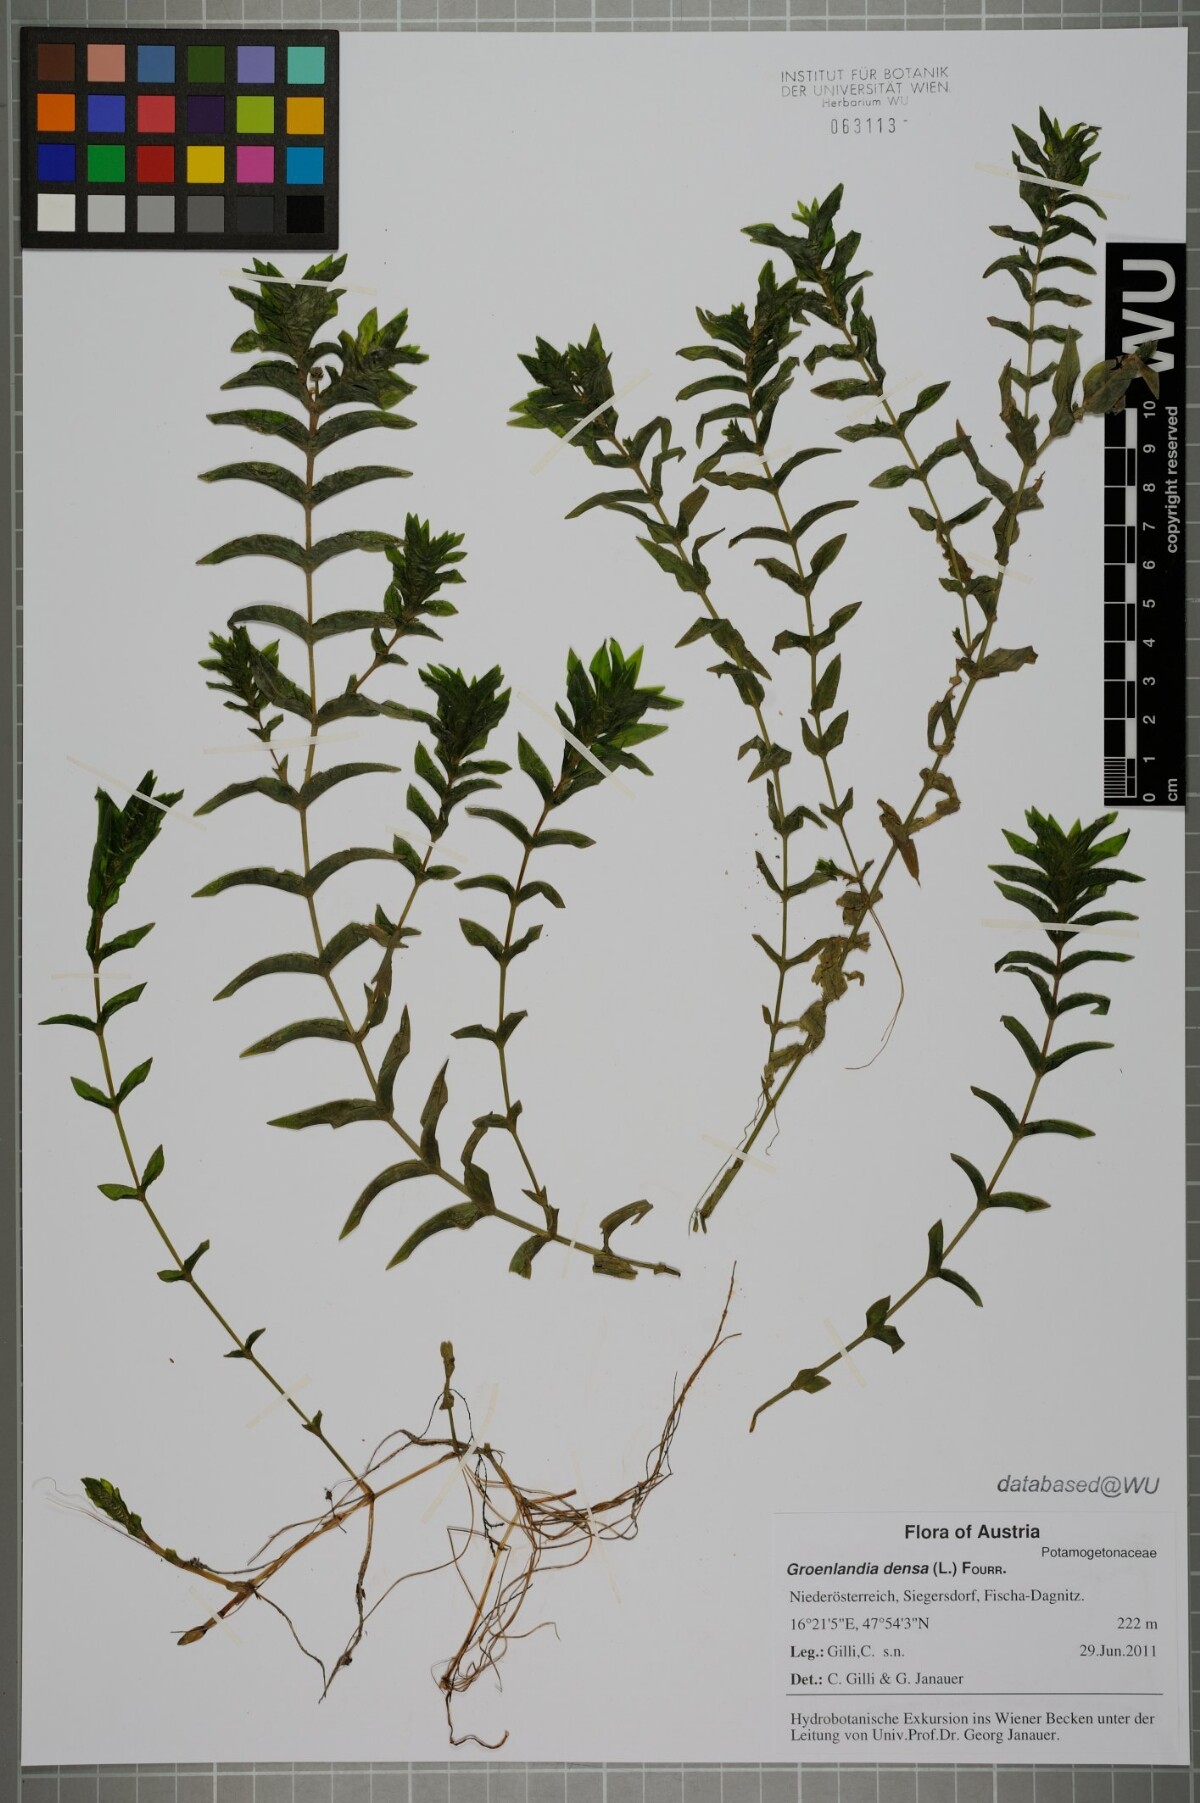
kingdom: Plantae
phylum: Tracheophyta
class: Liliopsida
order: Alismatales
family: Potamogetonaceae
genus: Groenlandia
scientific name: Groenlandia densa
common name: Opposite-leaved pondweed
